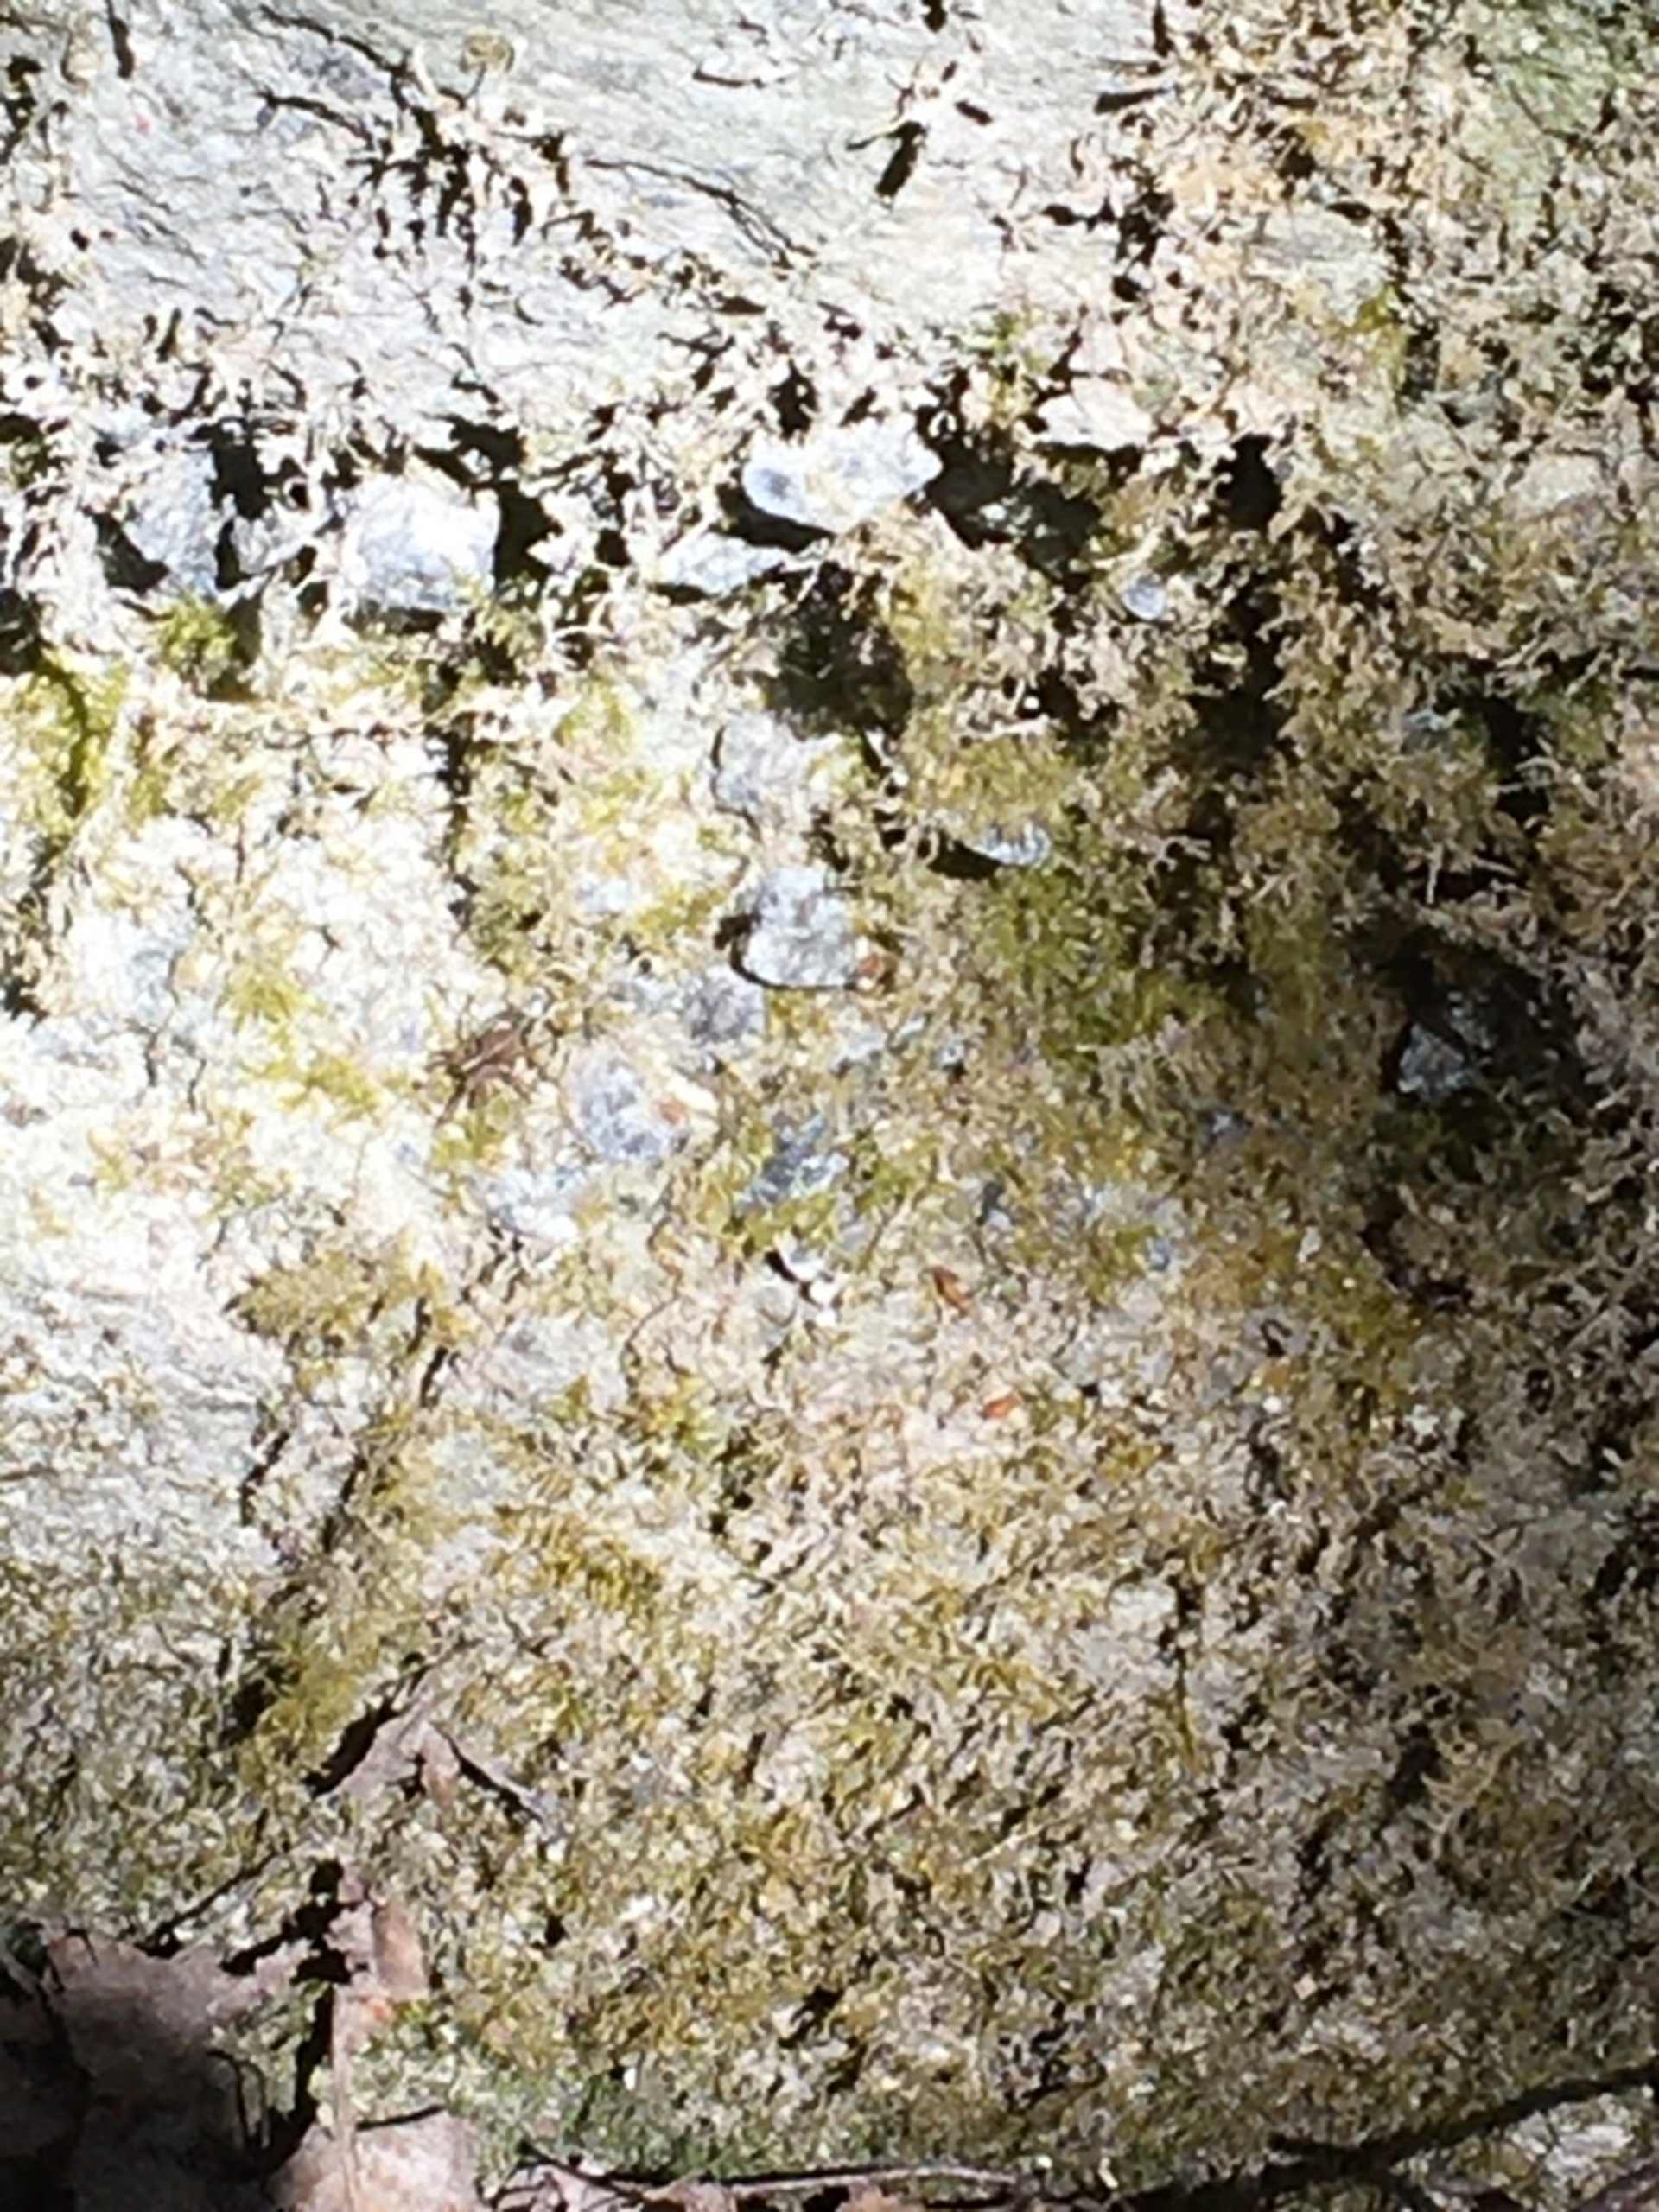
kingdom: Animalia
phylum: Arthropoda
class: Arachnida
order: Araneae
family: Lycosidae
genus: Pardosa
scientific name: Pardosa
